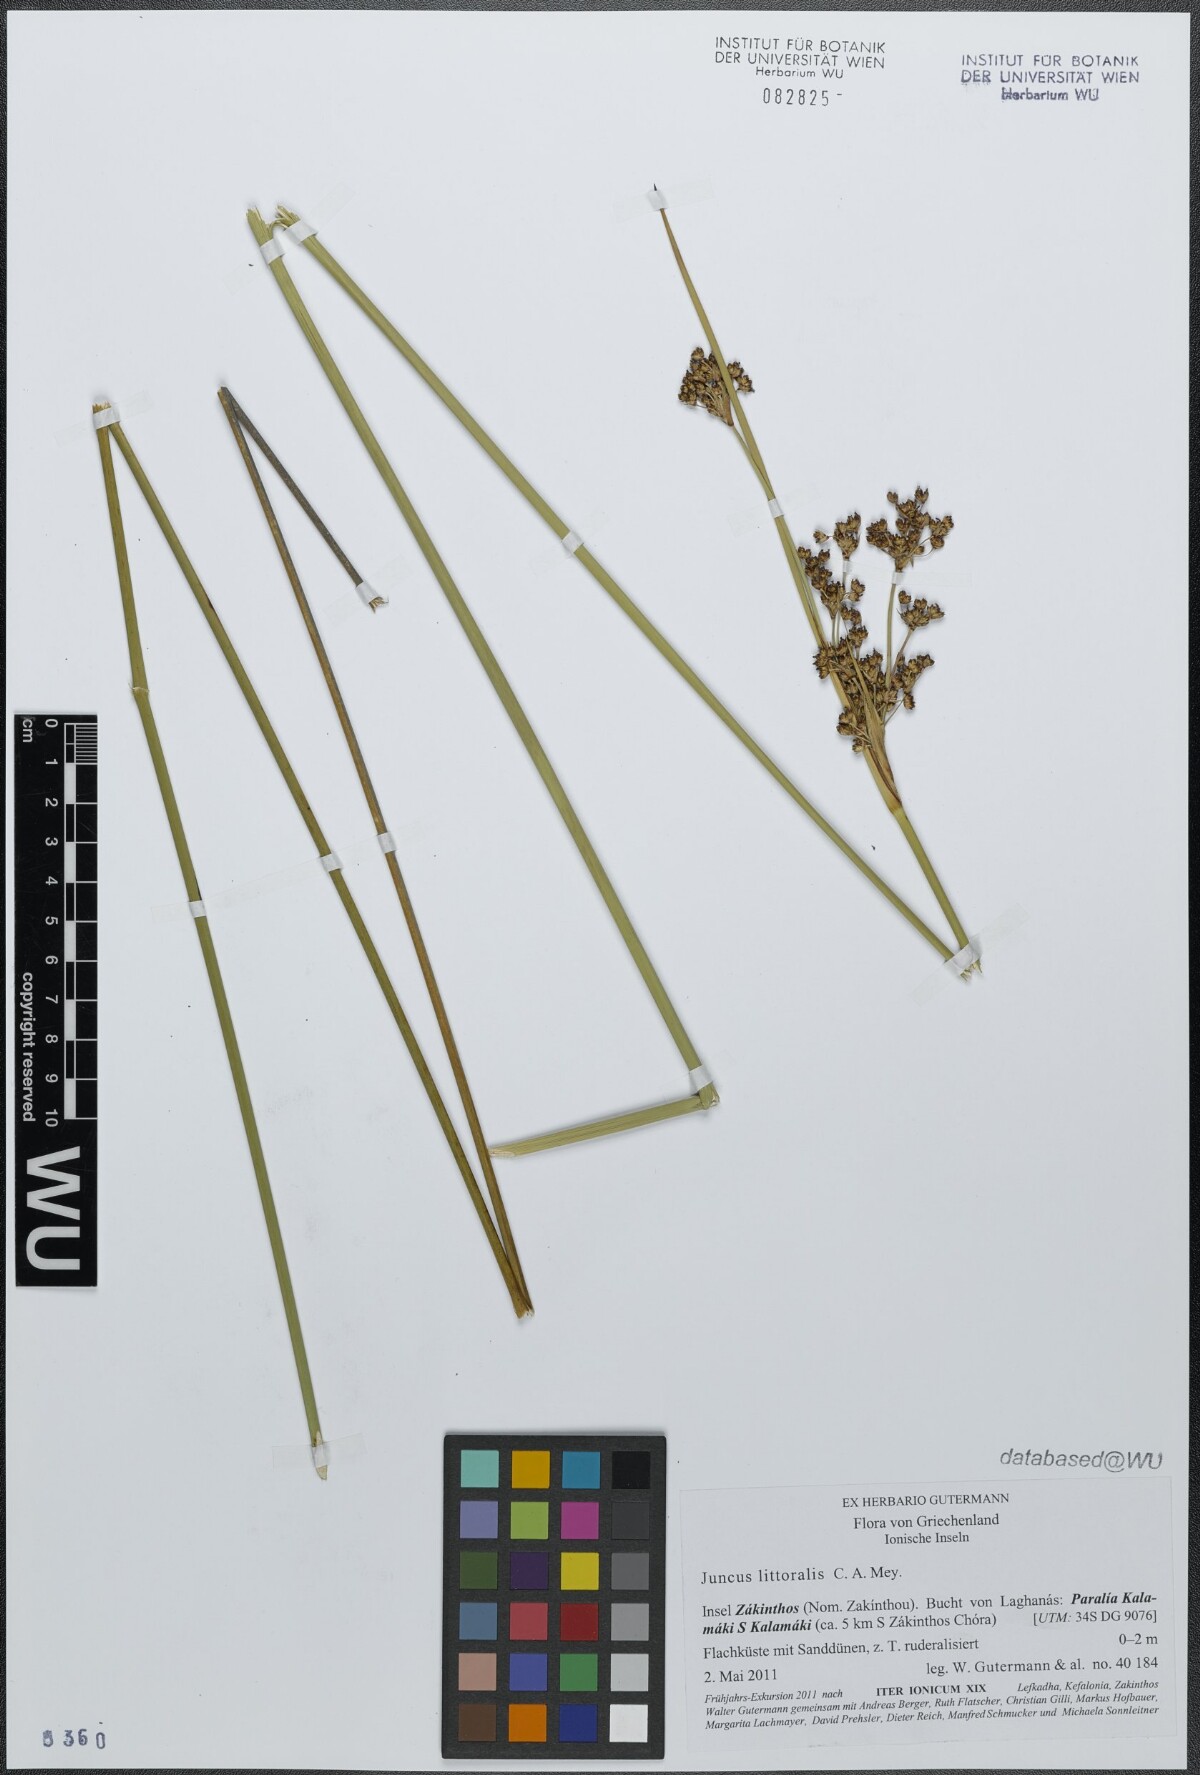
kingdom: Plantae
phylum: Tracheophyta
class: Liliopsida
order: Poales
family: Juncaceae
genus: Juncus
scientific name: Juncus littoralis
